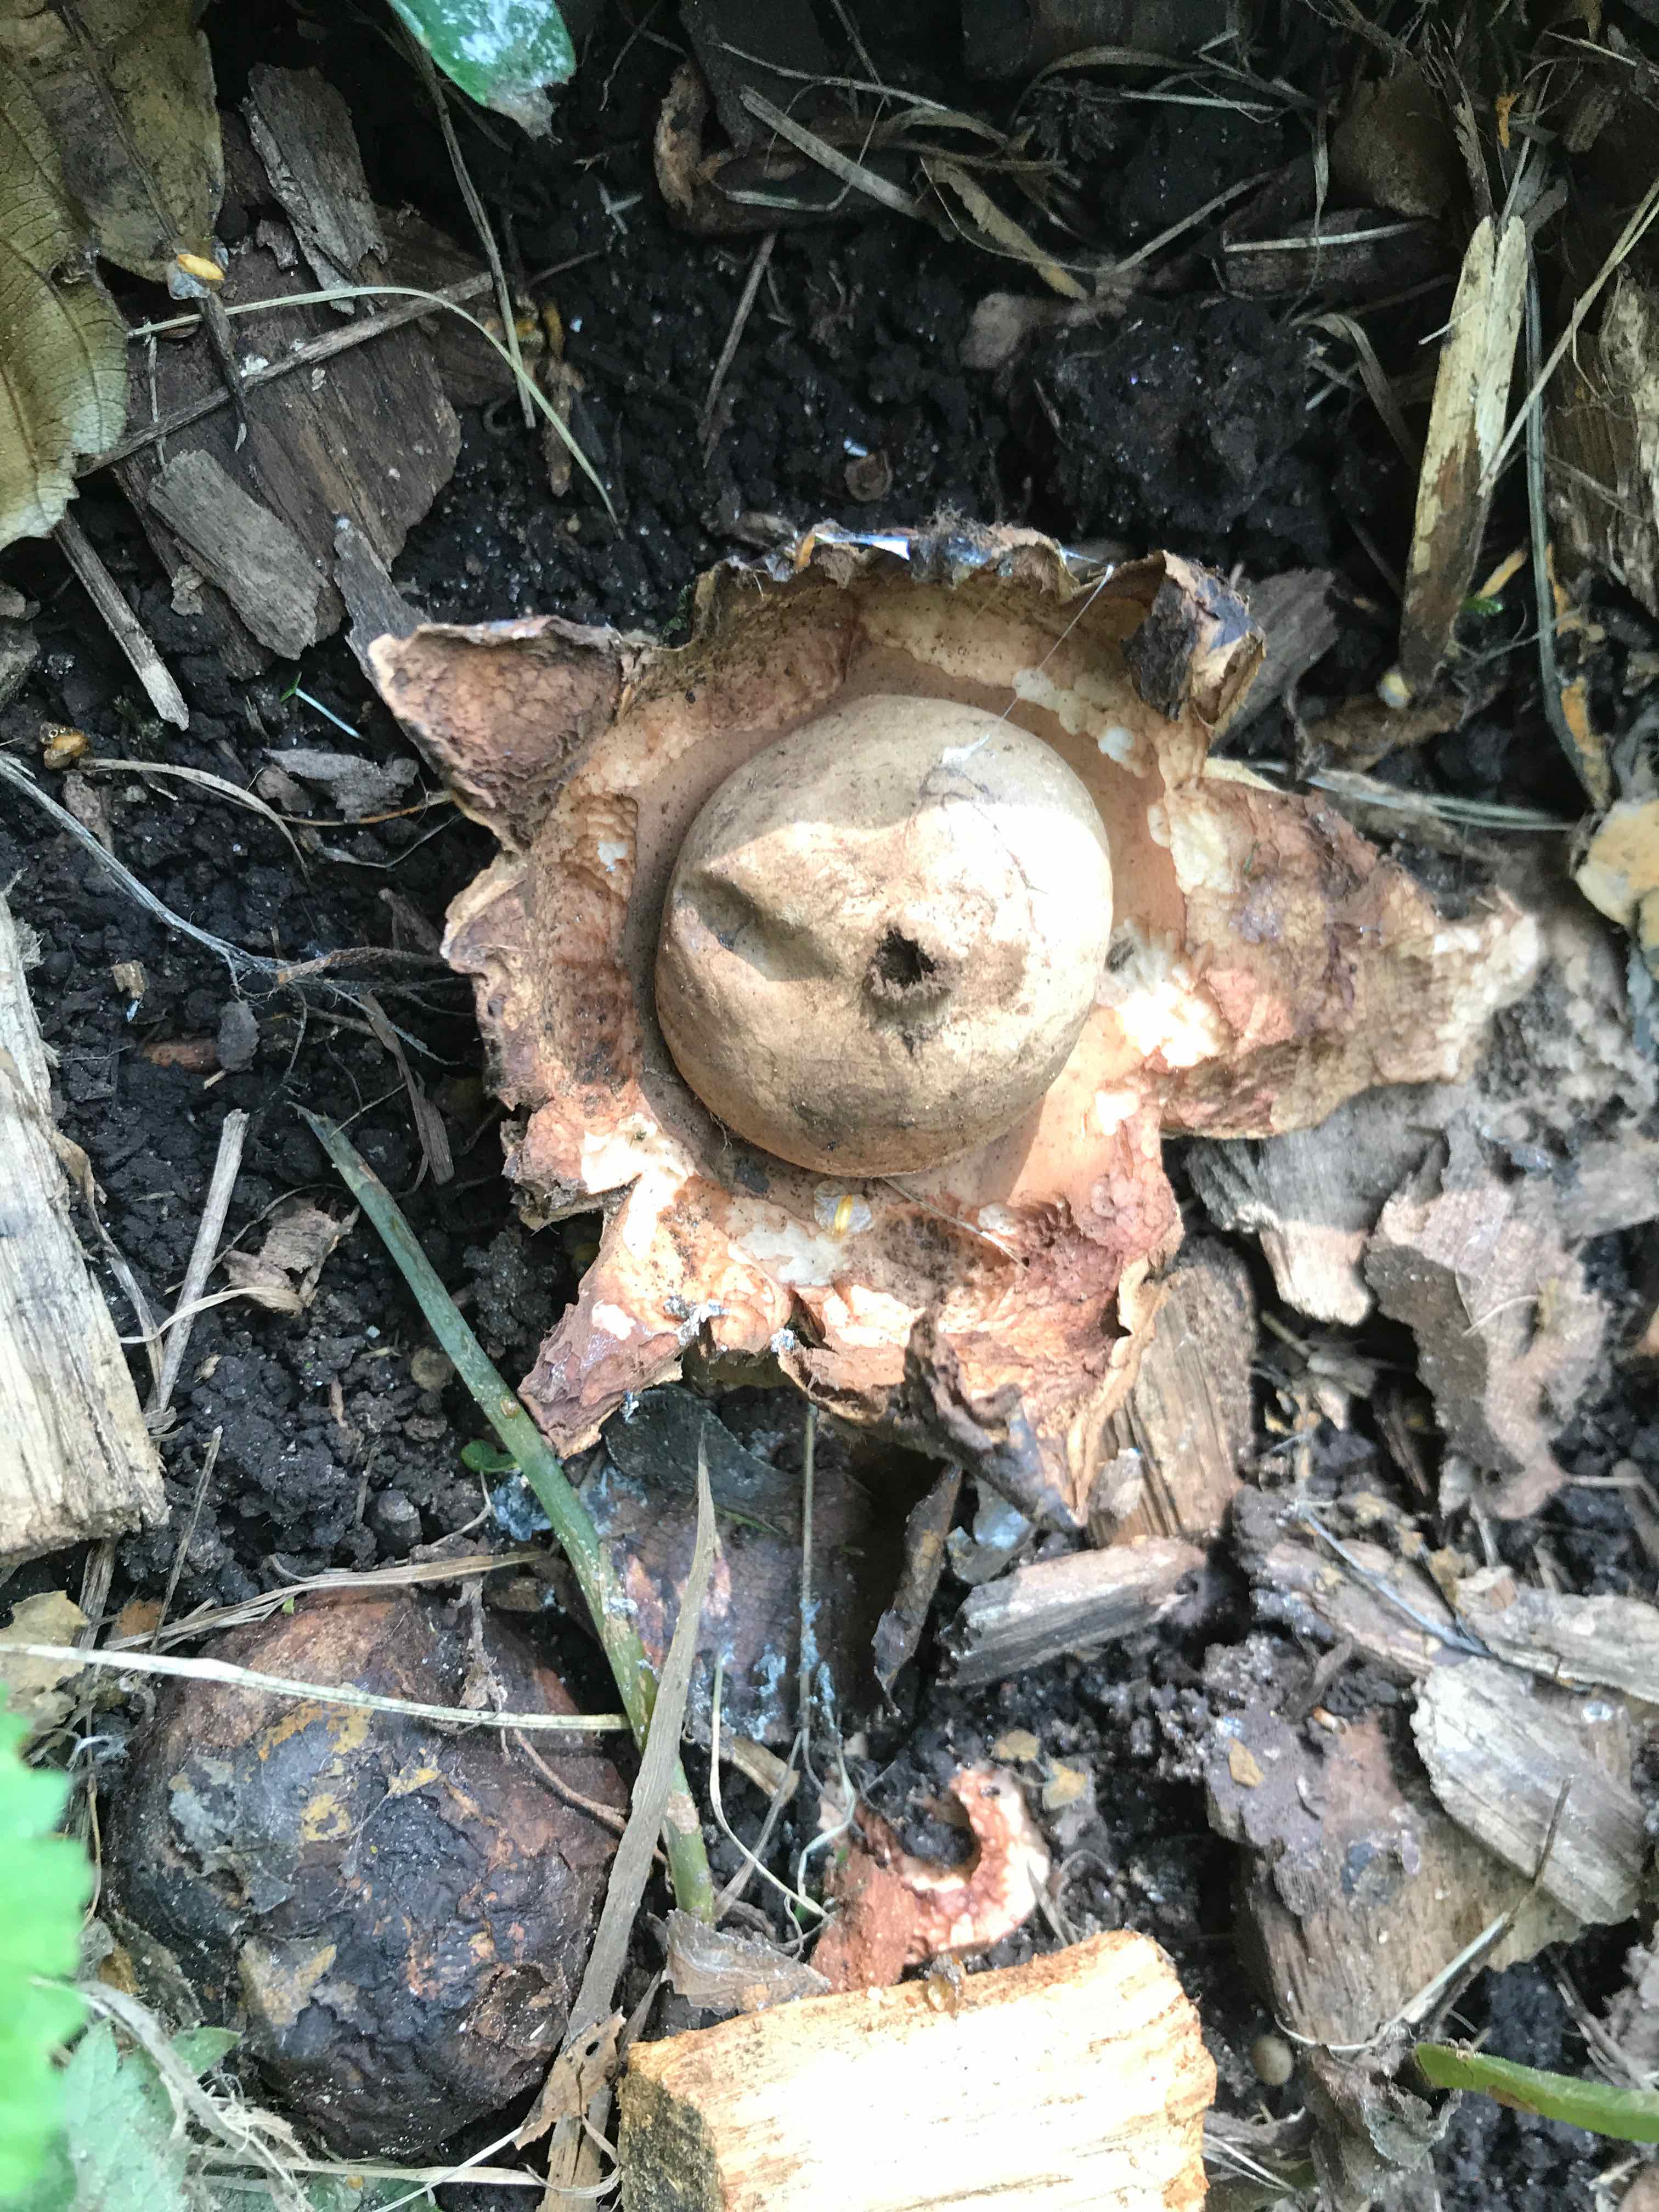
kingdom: Fungi
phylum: Basidiomycota
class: Agaricomycetes
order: Geastrales
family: Geastraceae
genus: Geastrum
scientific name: Geastrum michelianum
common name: kødet stjernebold
